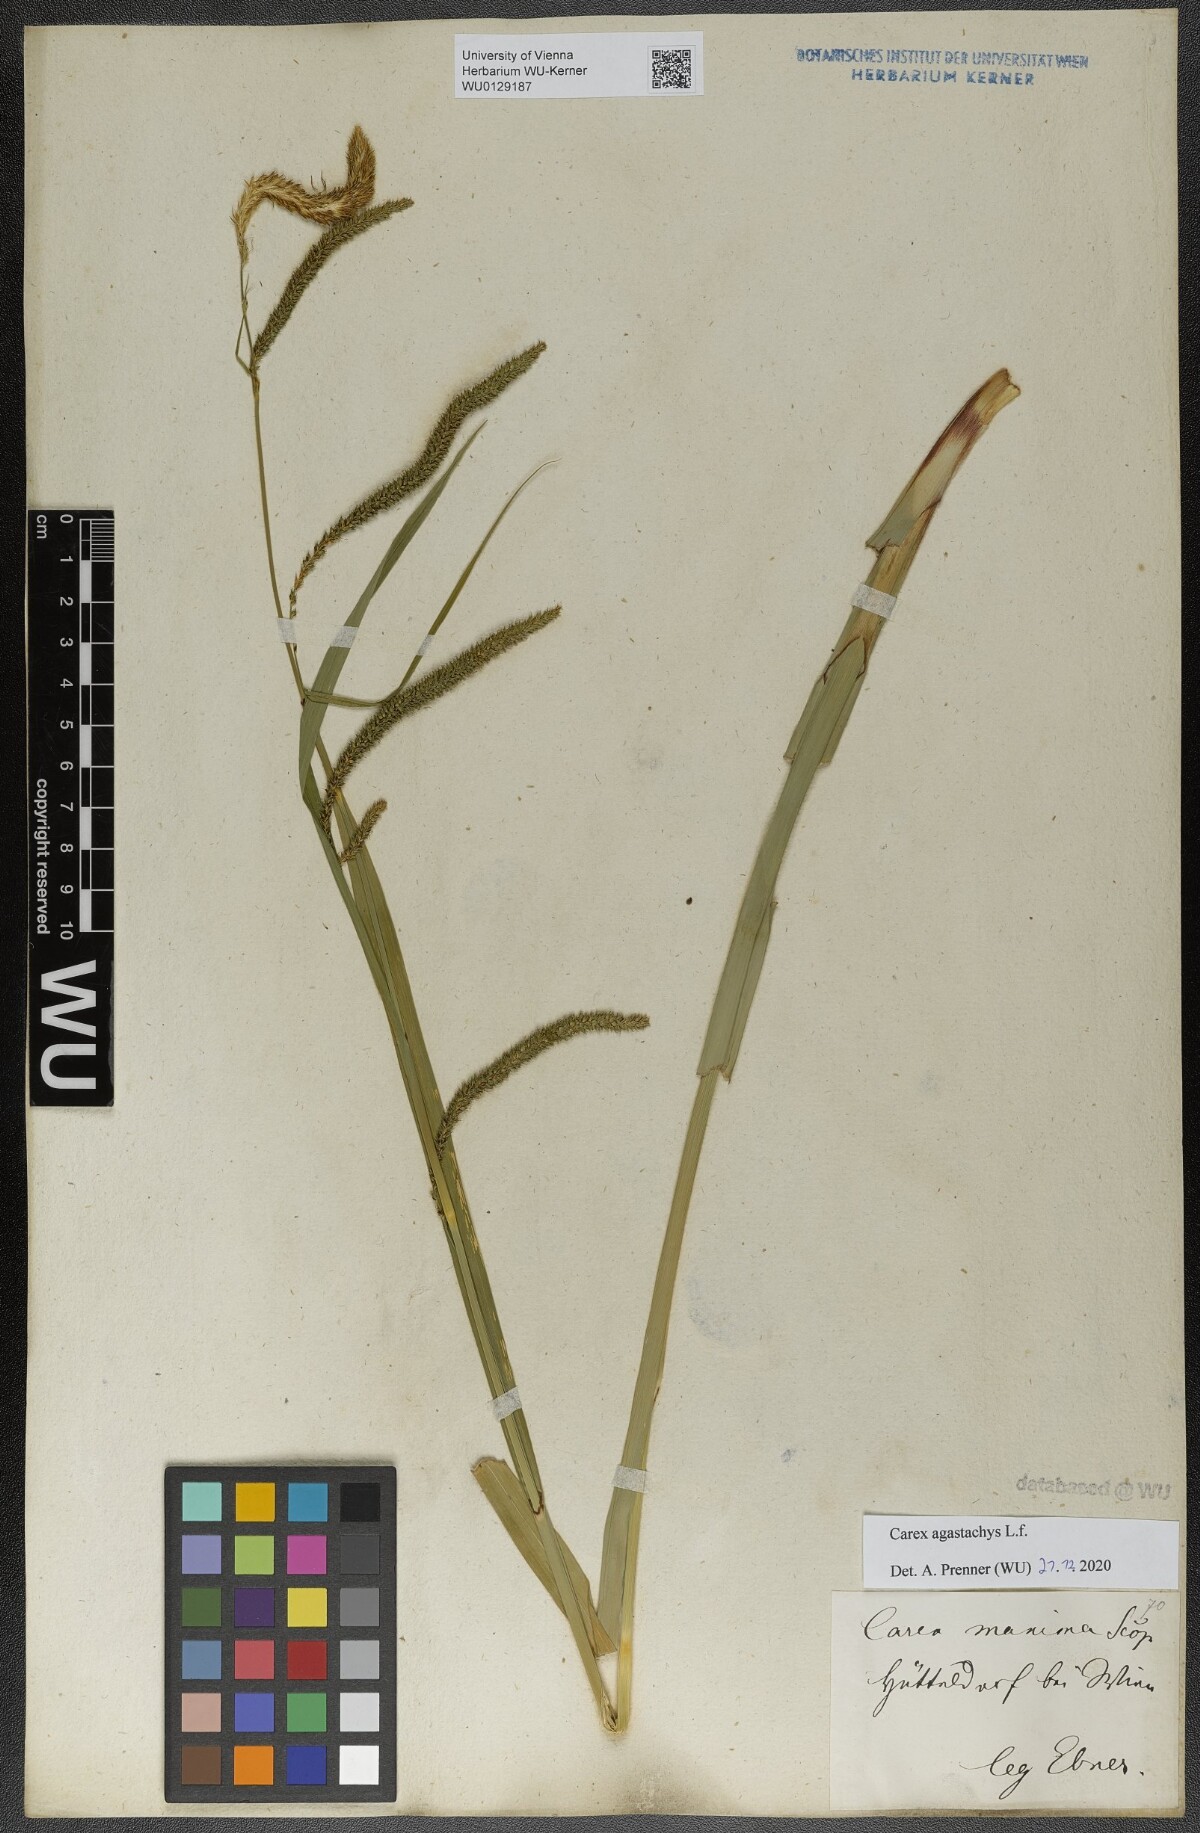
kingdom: Plantae
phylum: Tracheophyta
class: Liliopsida
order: Poales
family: Cyperaceae
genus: Carex
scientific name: Carex agastachys
